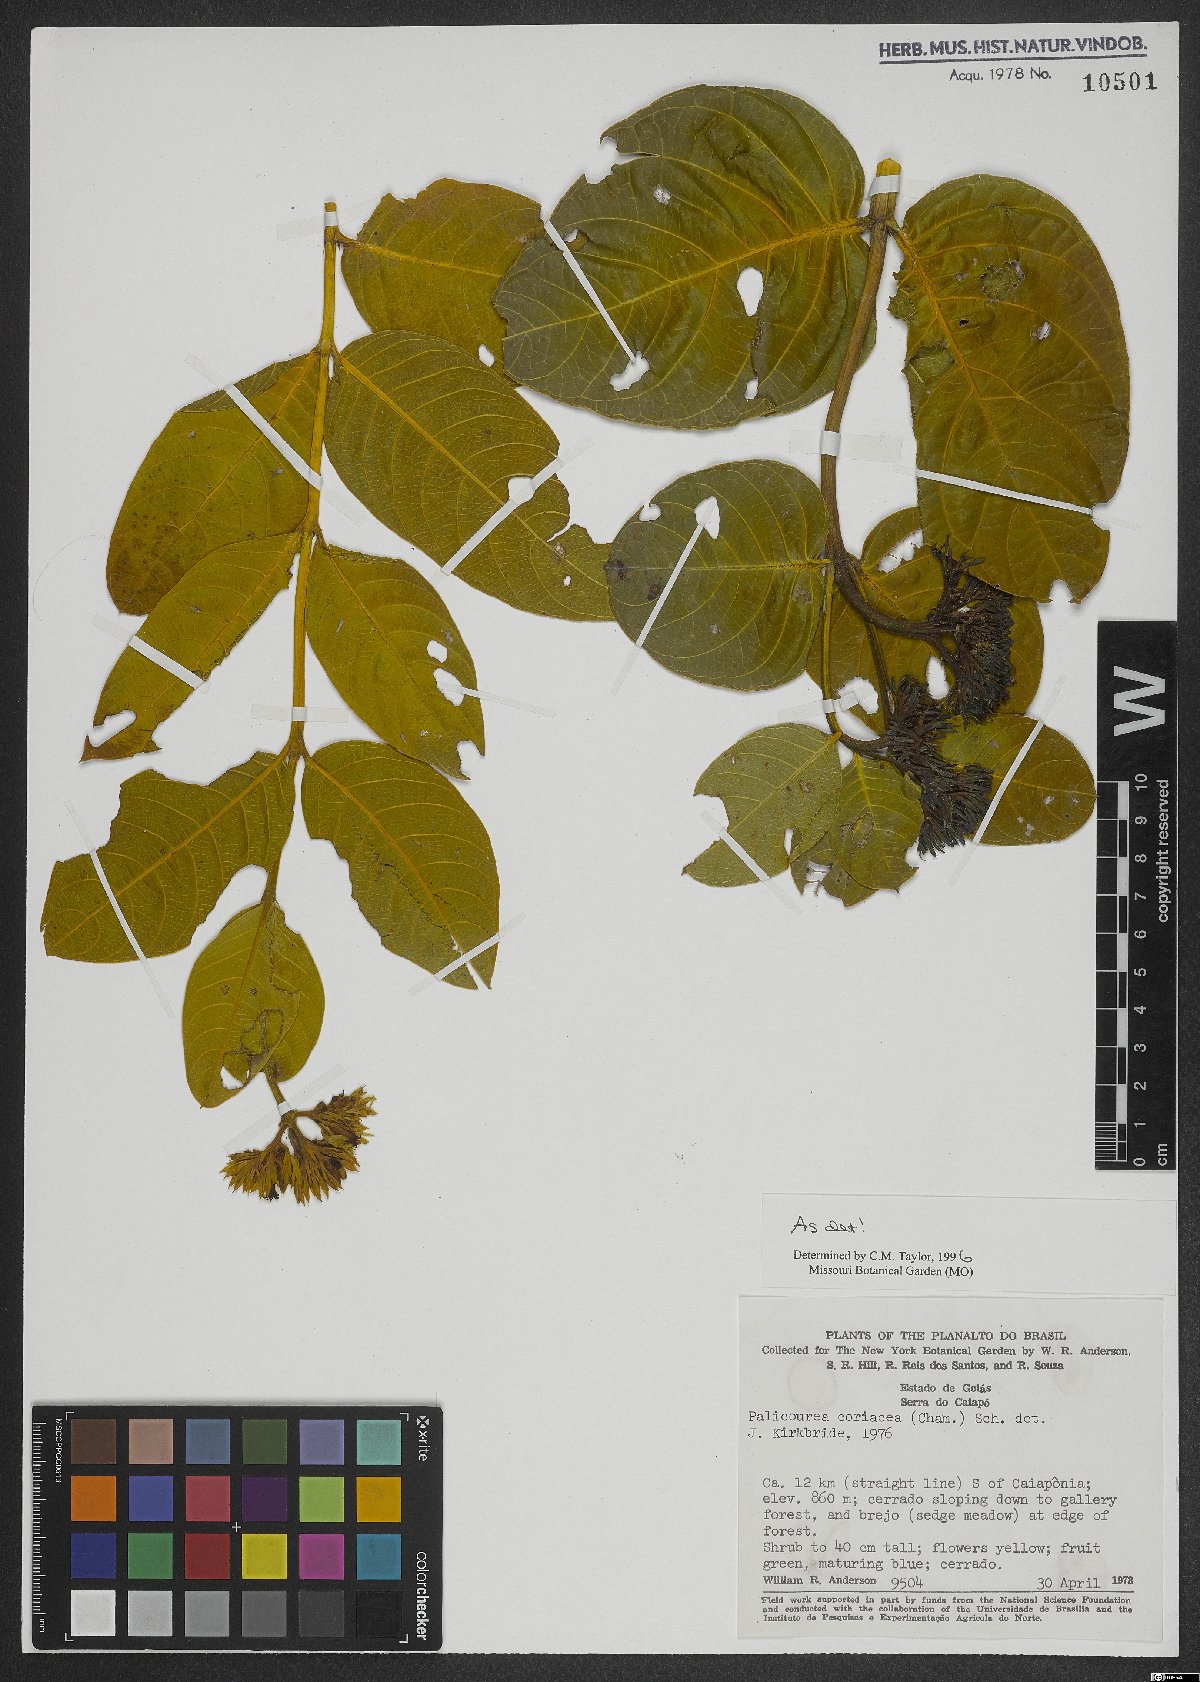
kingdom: Plantae
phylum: Tracheophyta
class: Magnoliopsida
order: Gentianales
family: Rubiaceae
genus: Palicourea
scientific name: Palicourea coriacea
